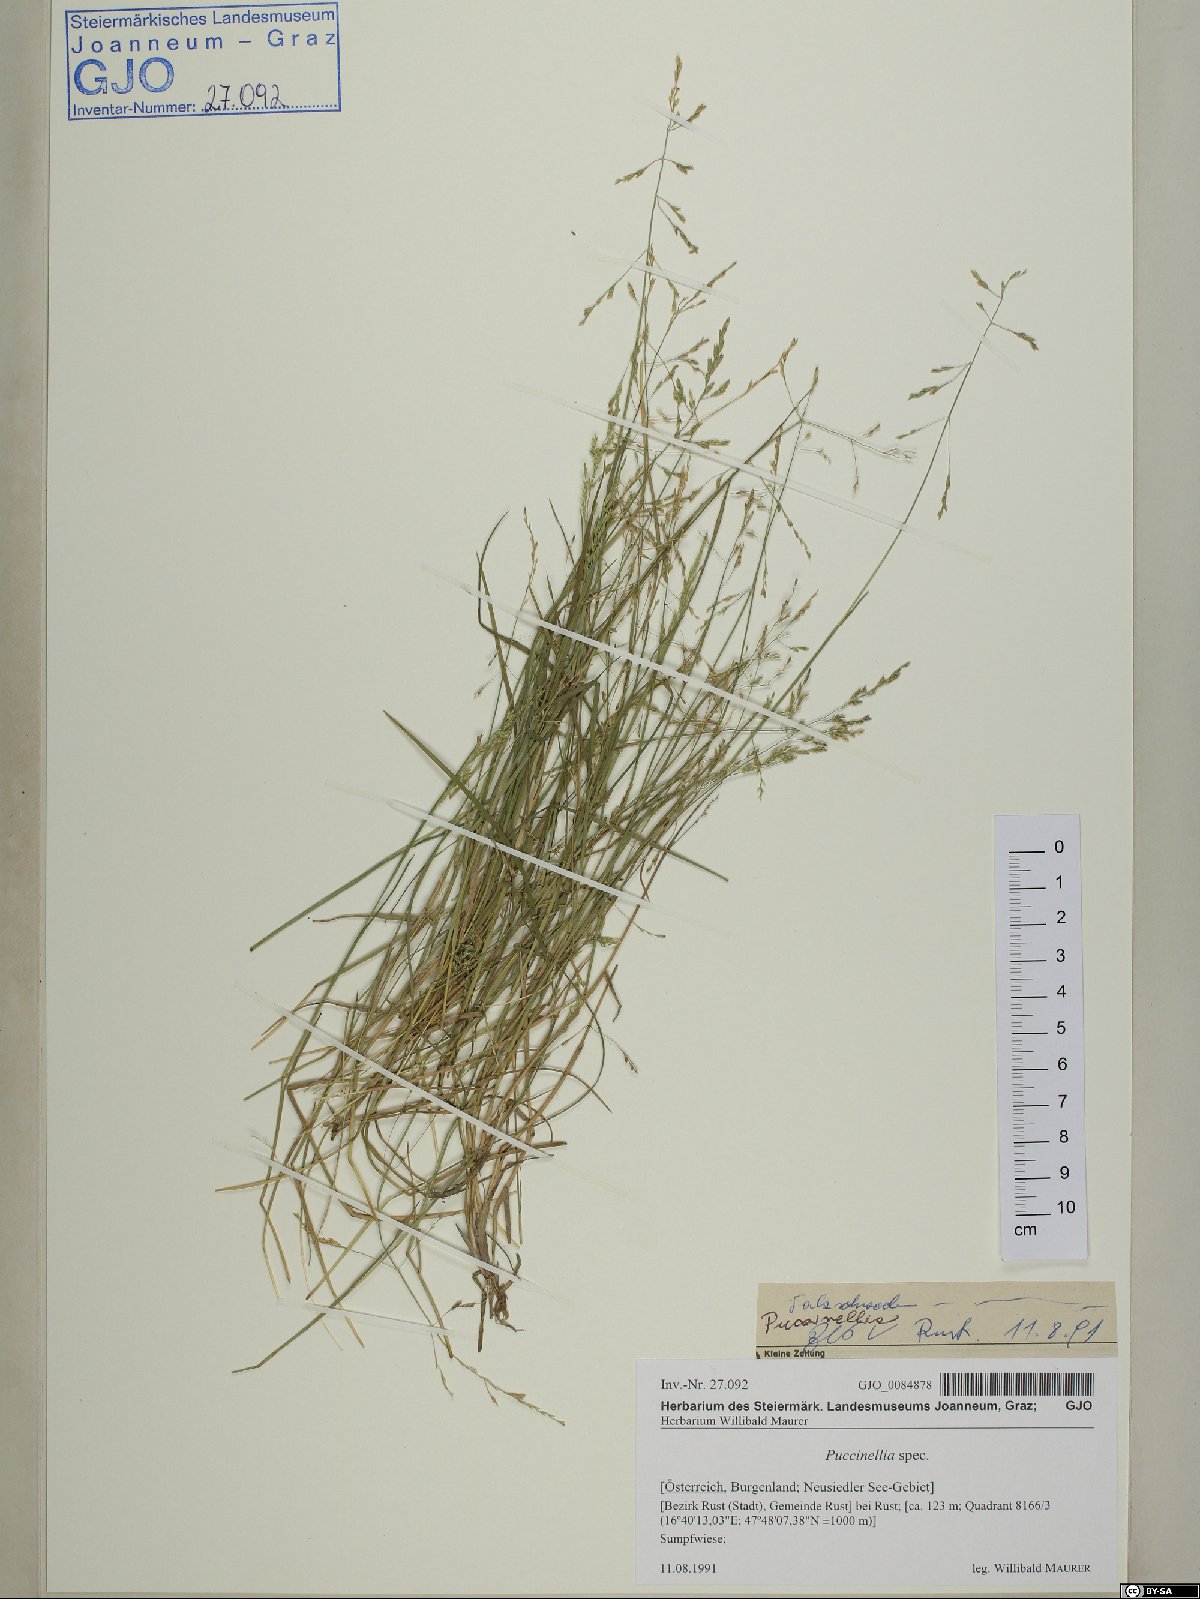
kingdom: Plantae
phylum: Tracheophyta
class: Liliopsida
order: Poales
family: Poaceae
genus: Puccinellia
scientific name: Puccinellia distans
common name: Weeping alkaligrass
